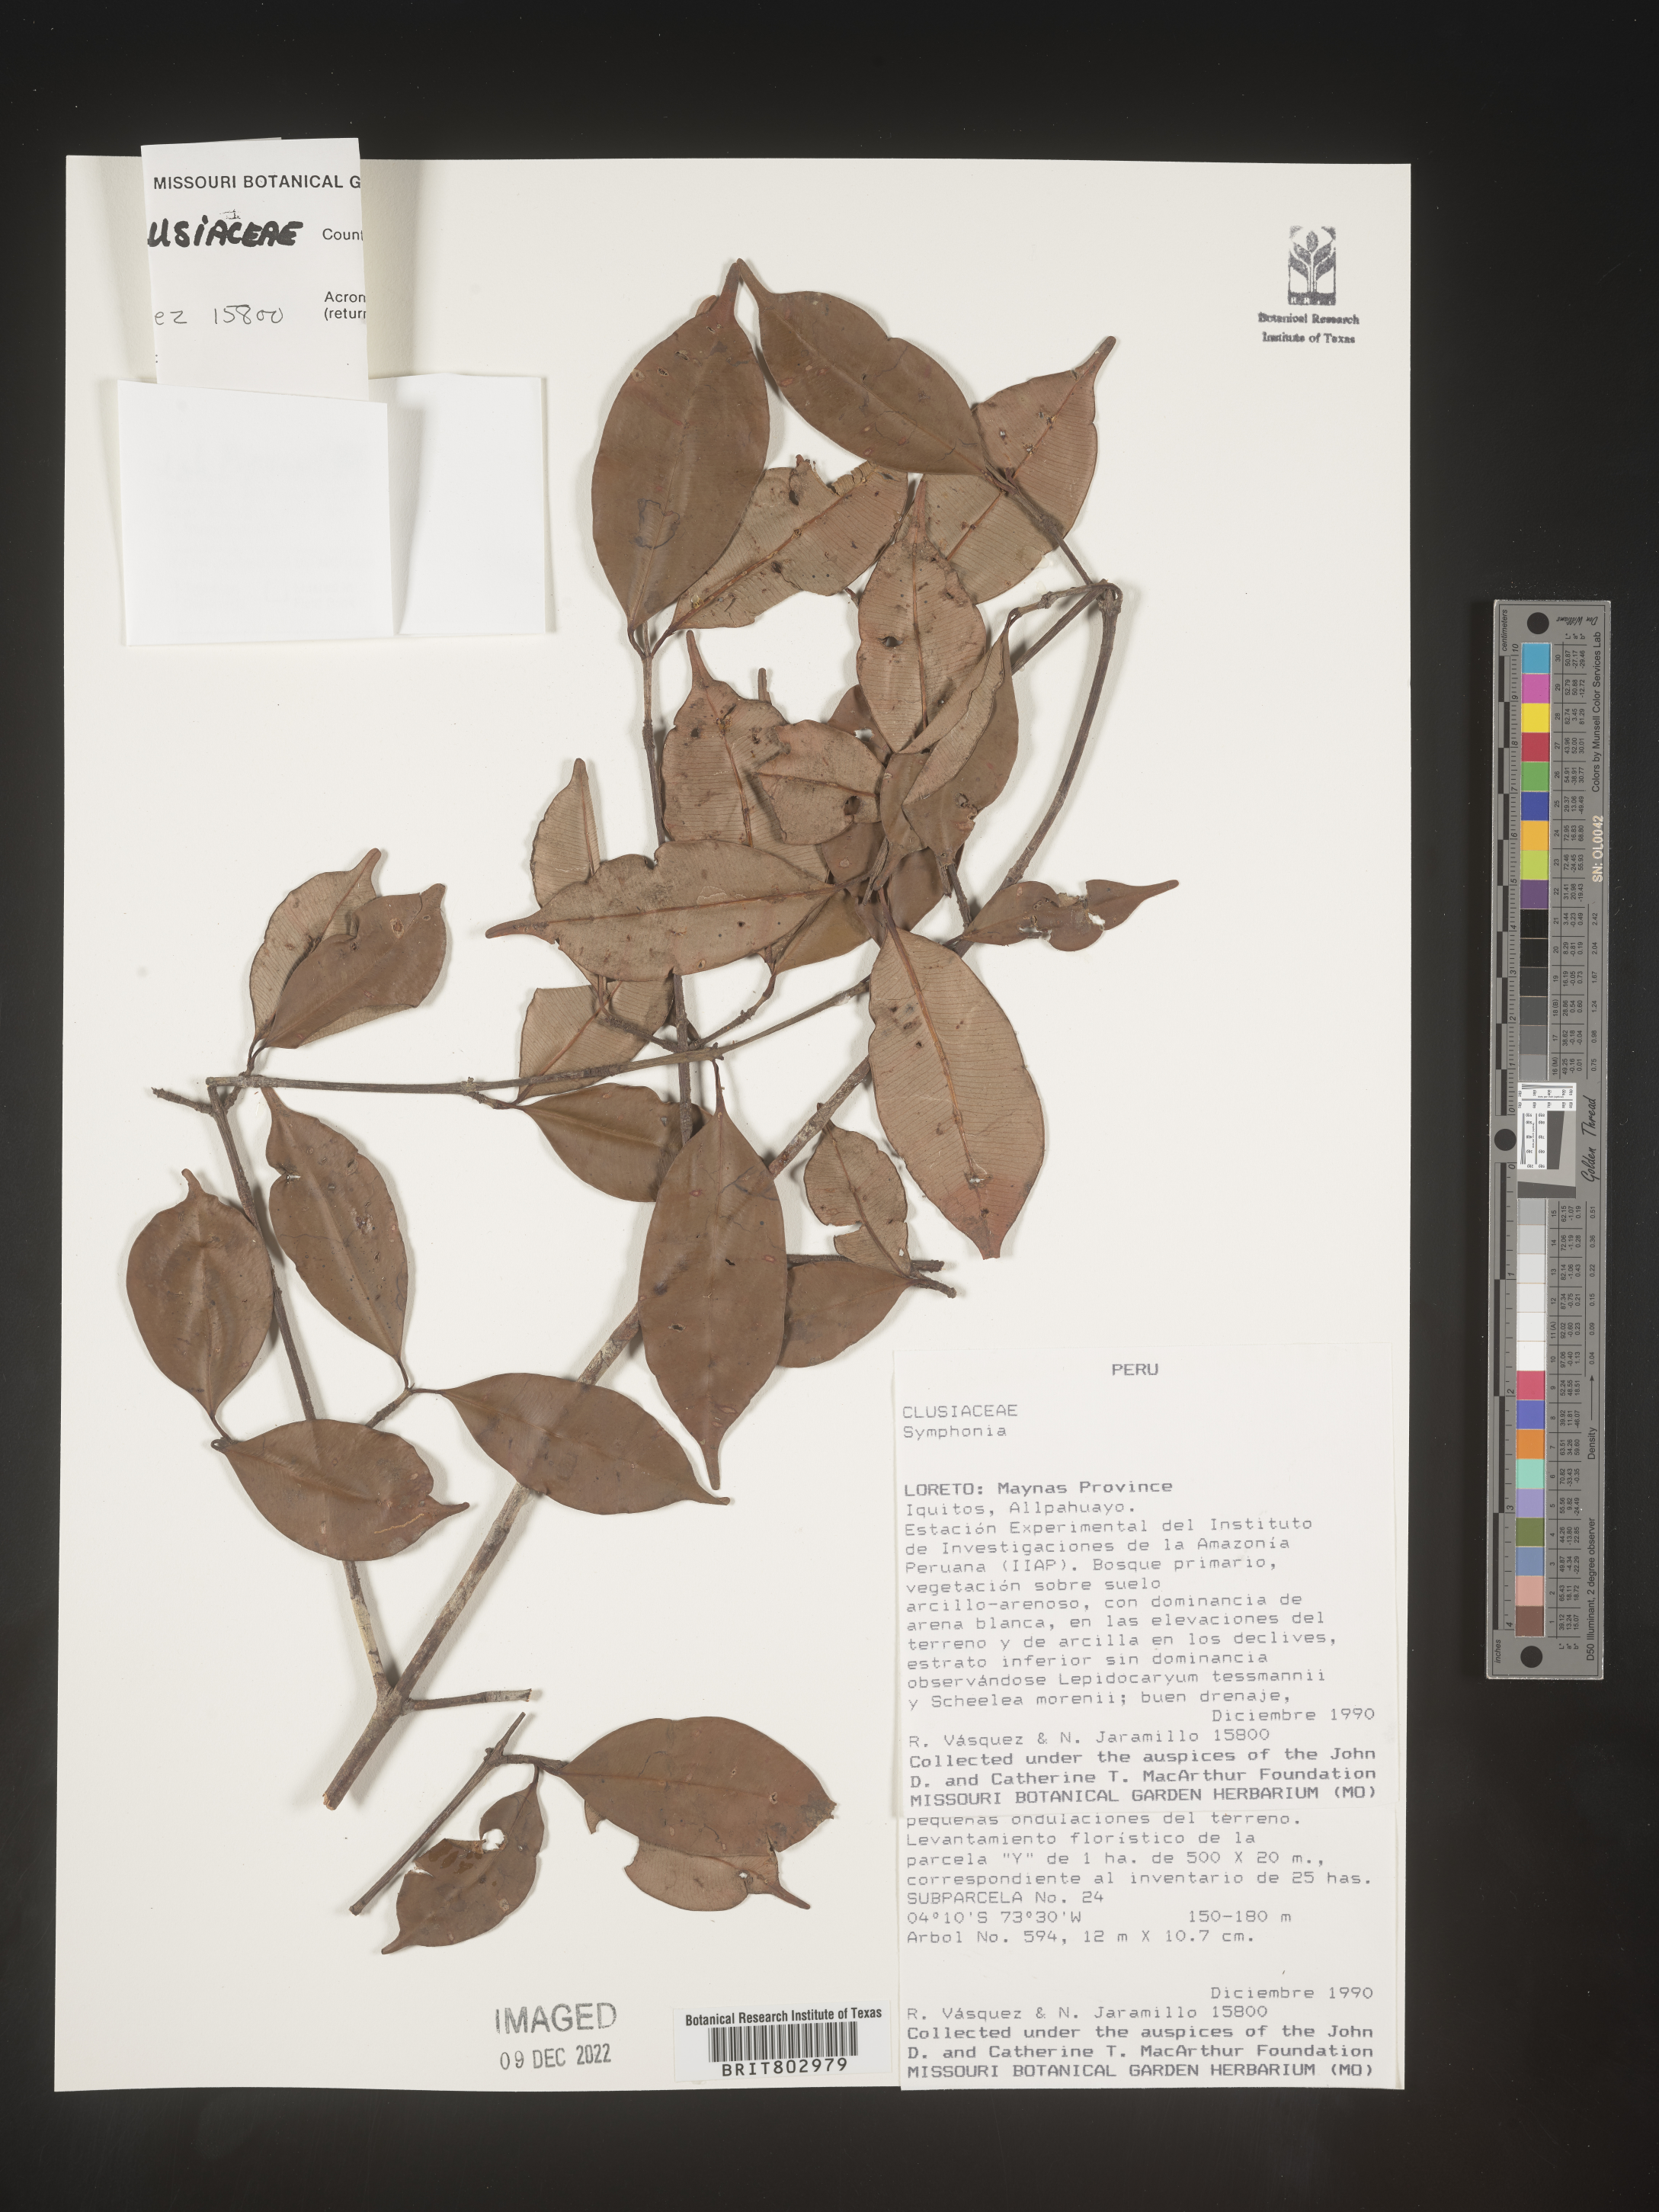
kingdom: Plantae
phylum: Tracheophyta
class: Magnoliopsida
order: Malpighiales
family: Clusiaceae
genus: Symphonia
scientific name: Symphonia globulifera
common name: Boarwood
